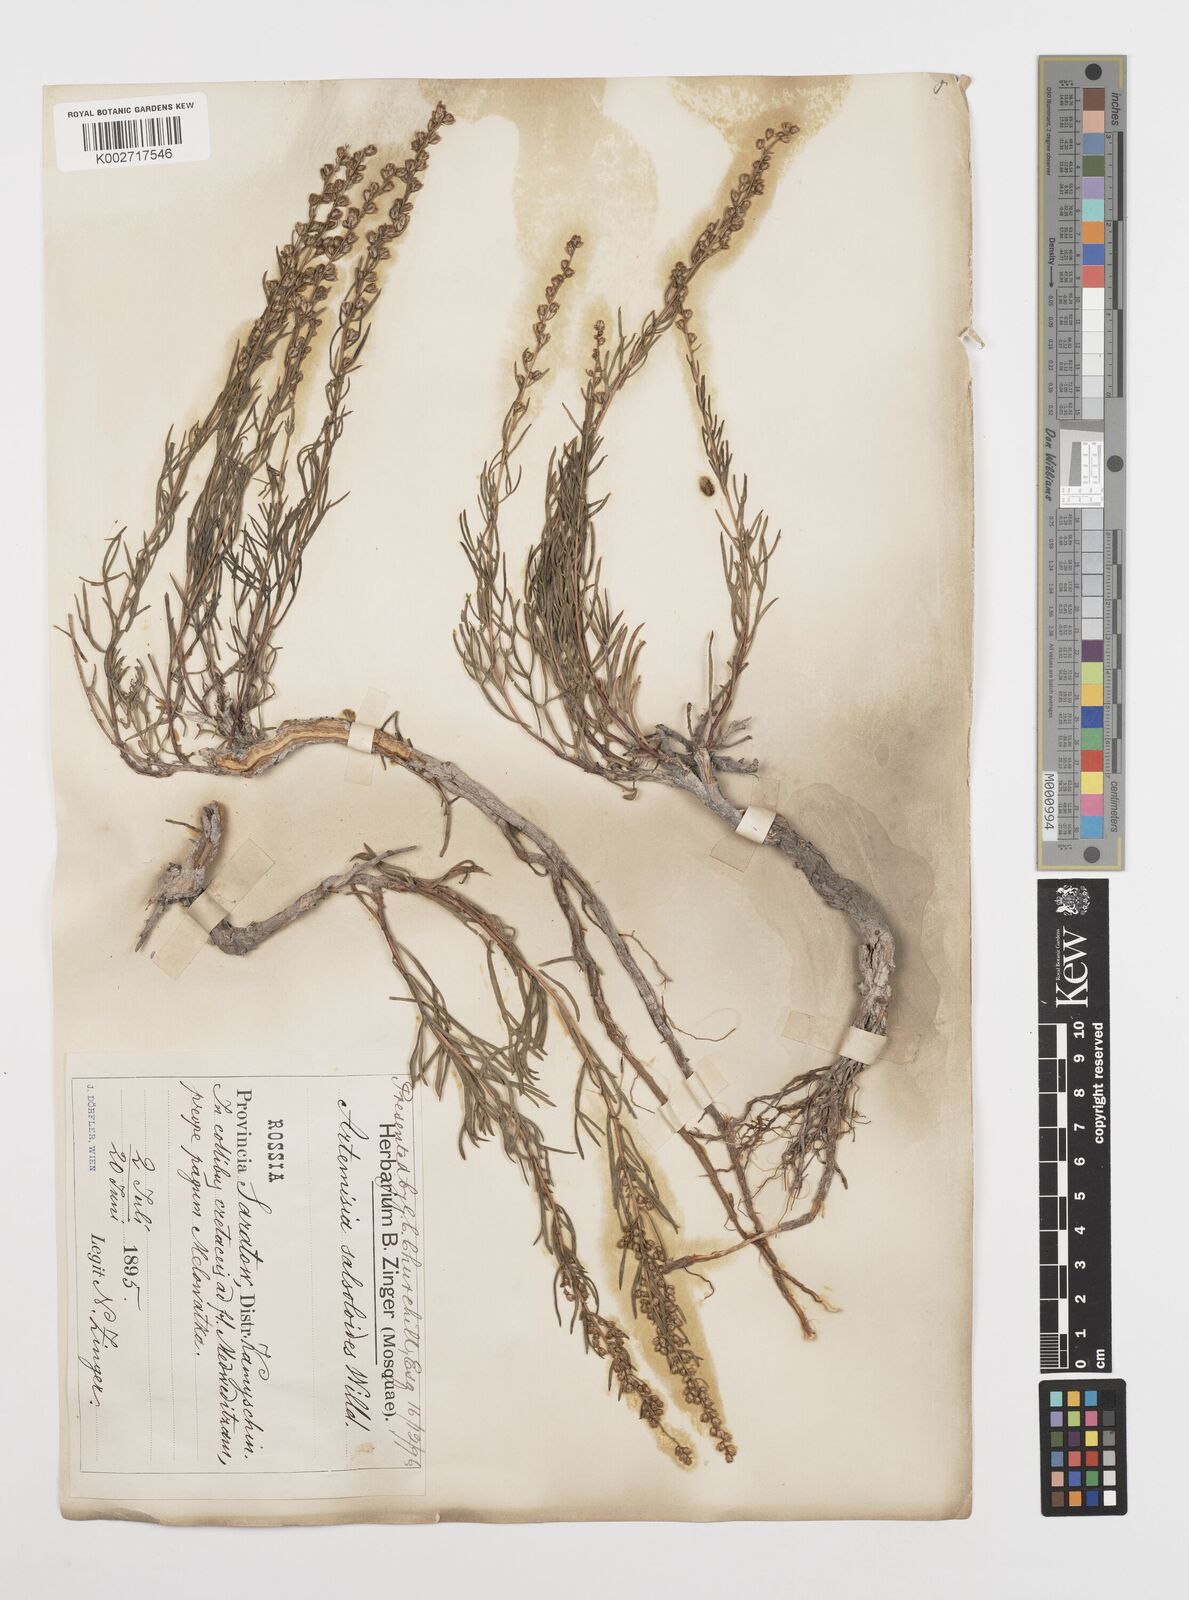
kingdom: Plantae
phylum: Tracheophyta
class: Magnoliopsida
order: Asterales
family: Asteraceae
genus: Artemisia
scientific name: Artemisia salsoloides
